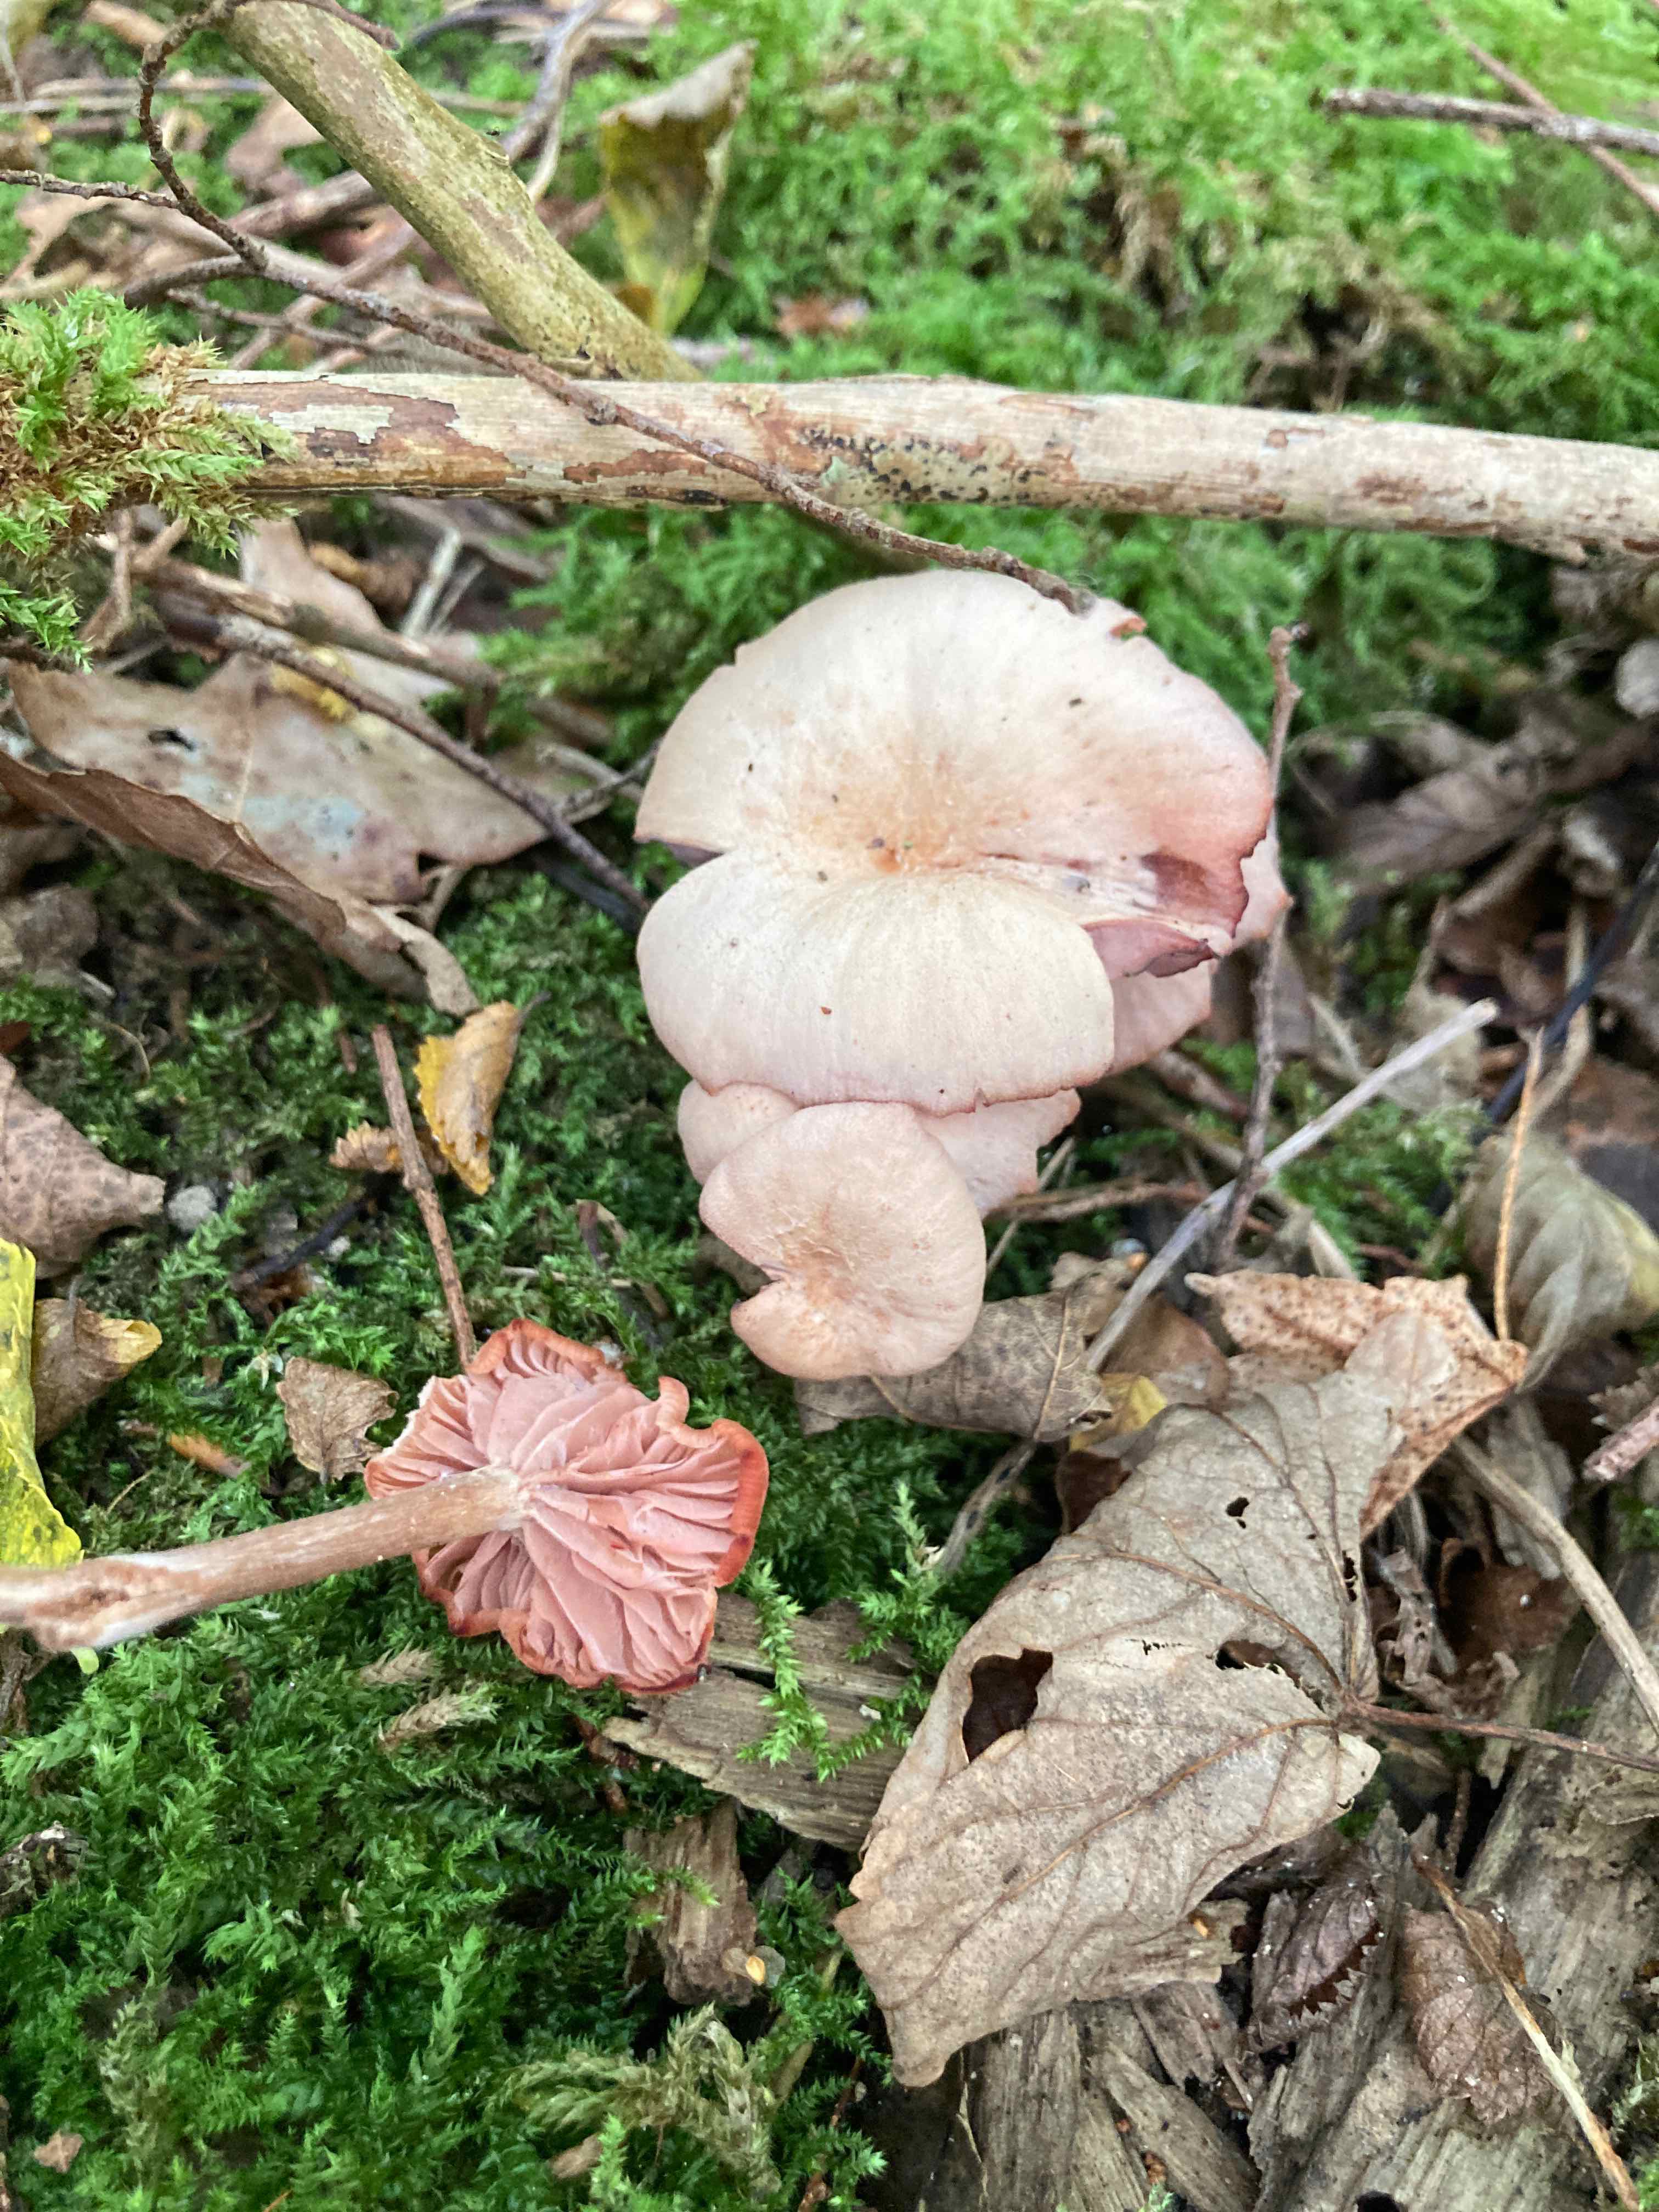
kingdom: Fungi
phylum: Basidiomycota
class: Agaricomycetes
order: Agaricales
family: Hydnangiaceae
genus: Laccaria
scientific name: Laccaria laccata
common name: rød ametysthat
